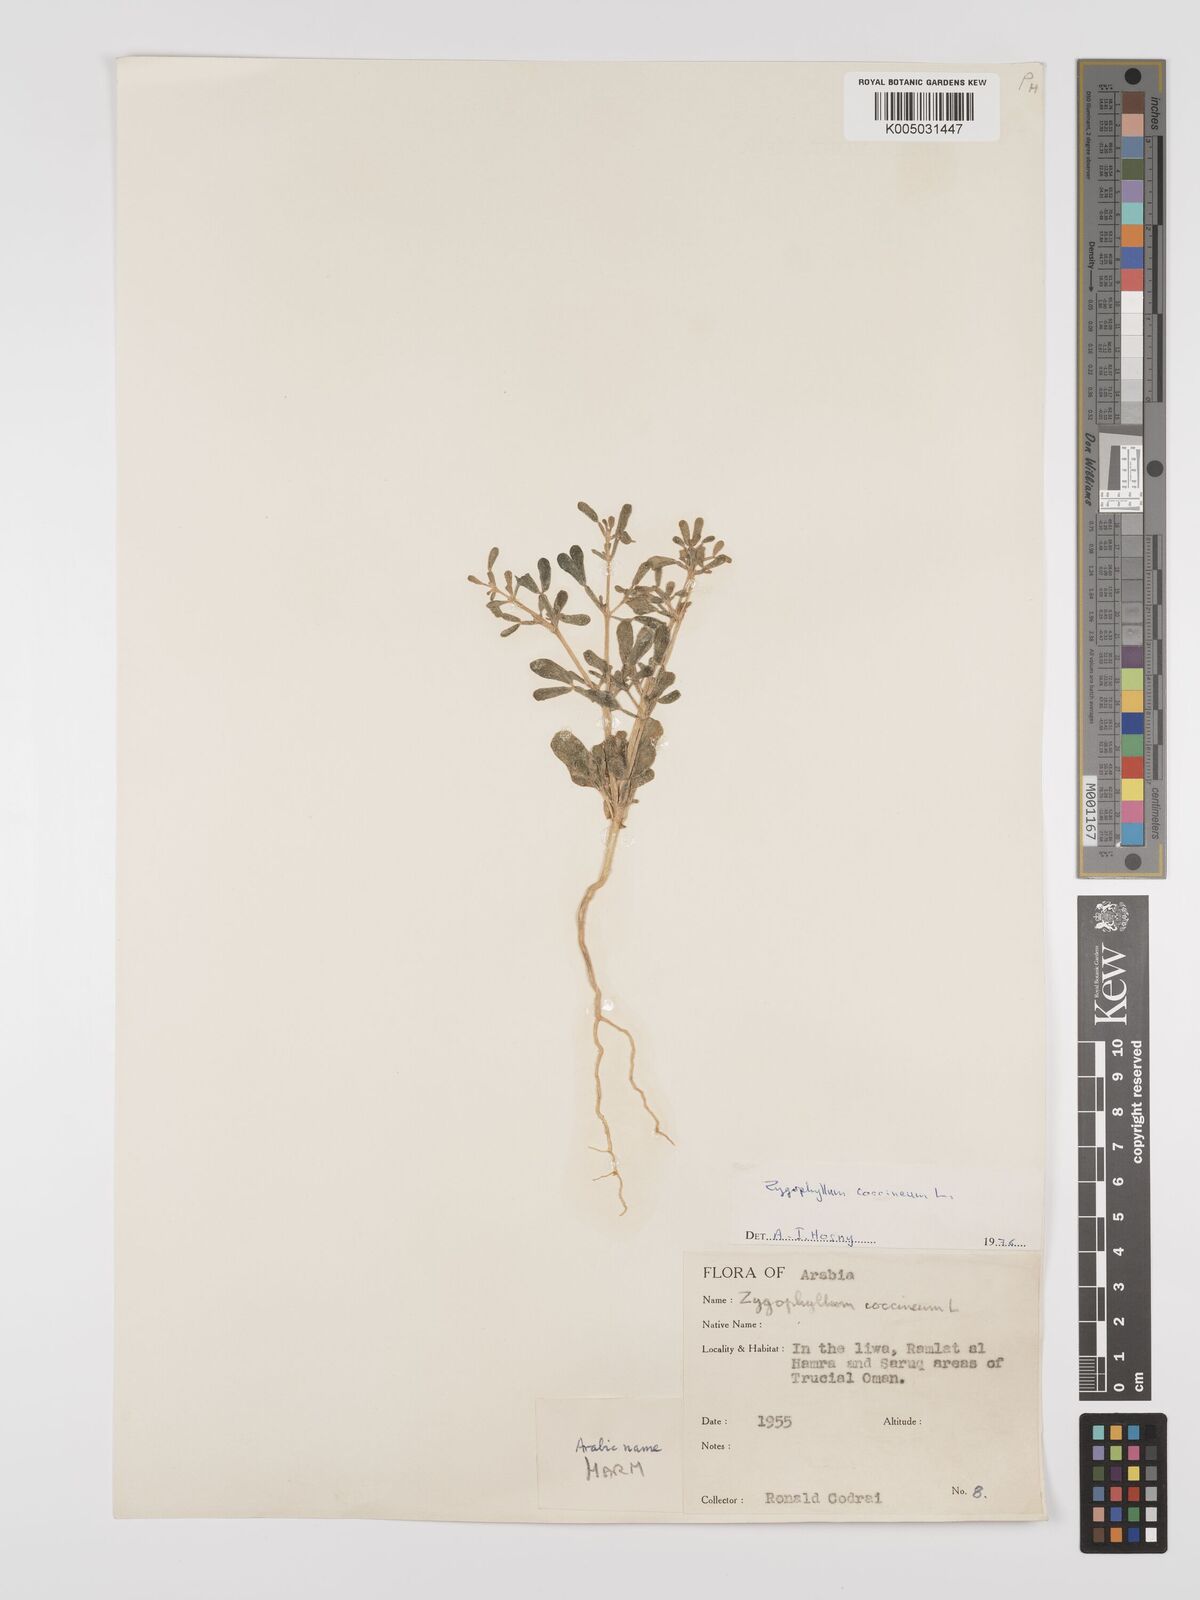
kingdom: Plantae
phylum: Tracheophyta
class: Magnoliopsida
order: Zygophyllales
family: Zygophyllaceae
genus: Zygophyllum
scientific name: Zygophyllum
